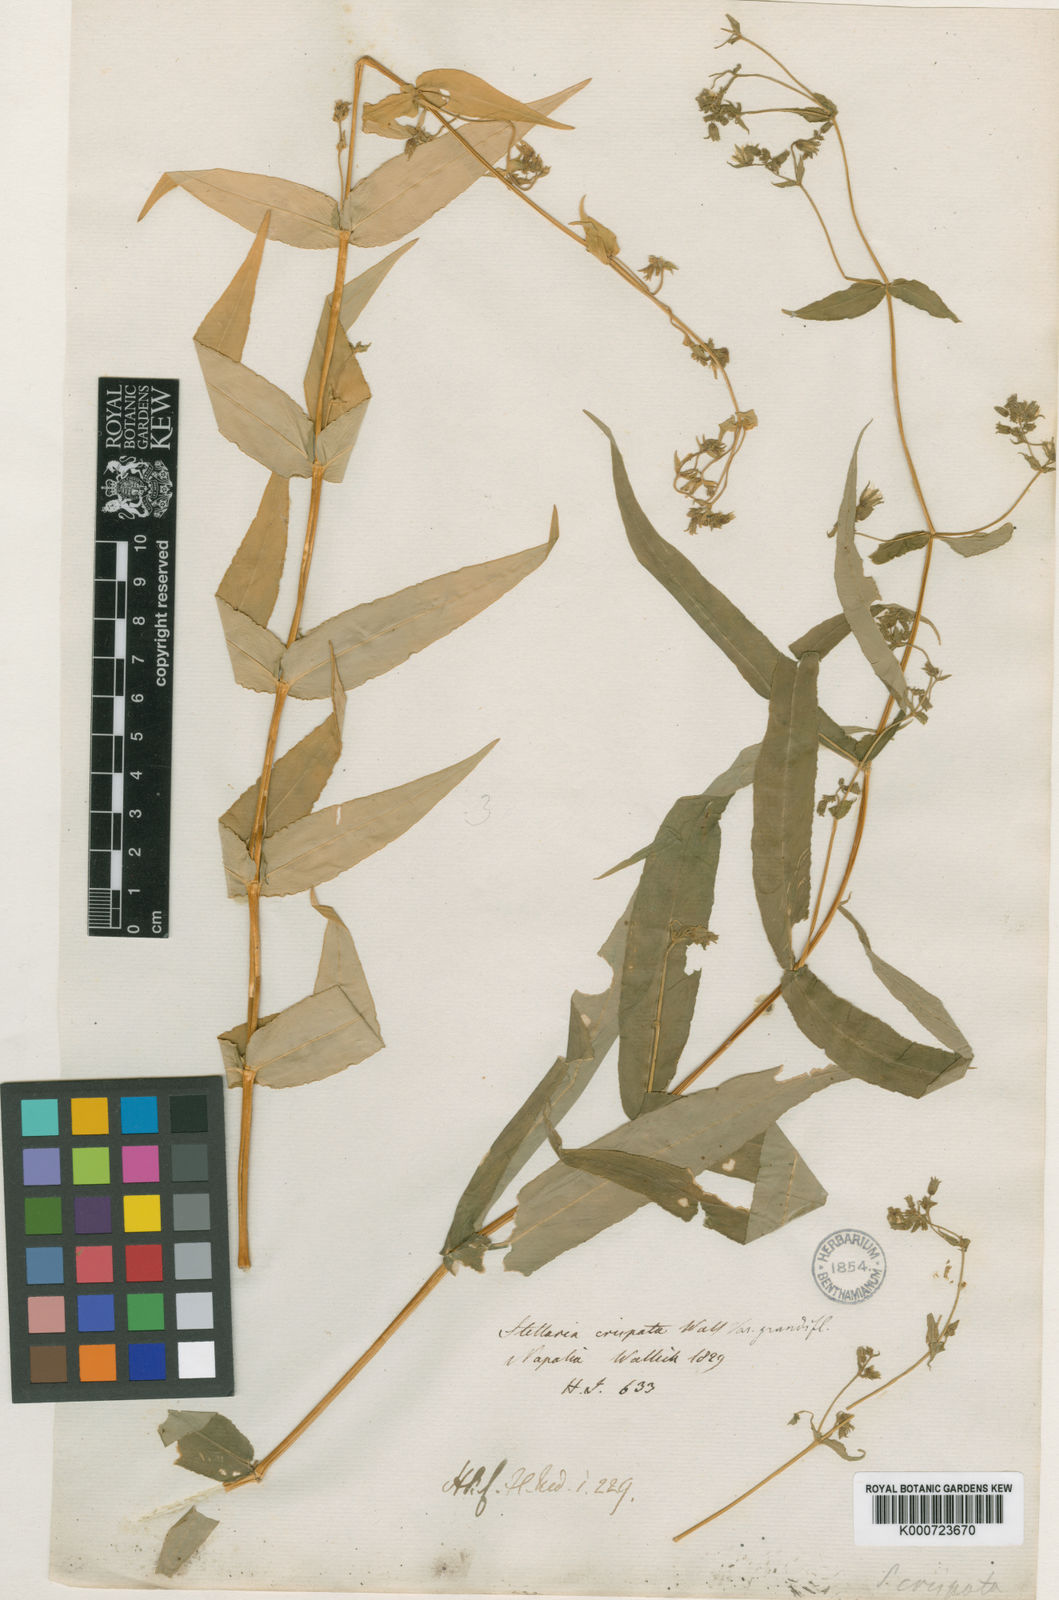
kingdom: Plantae
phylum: Tracheophyta
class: Magnoliopsida
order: Caryophyllales
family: Caryophyllaceae
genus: Schizotechium
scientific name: Schizotechium monospermum
